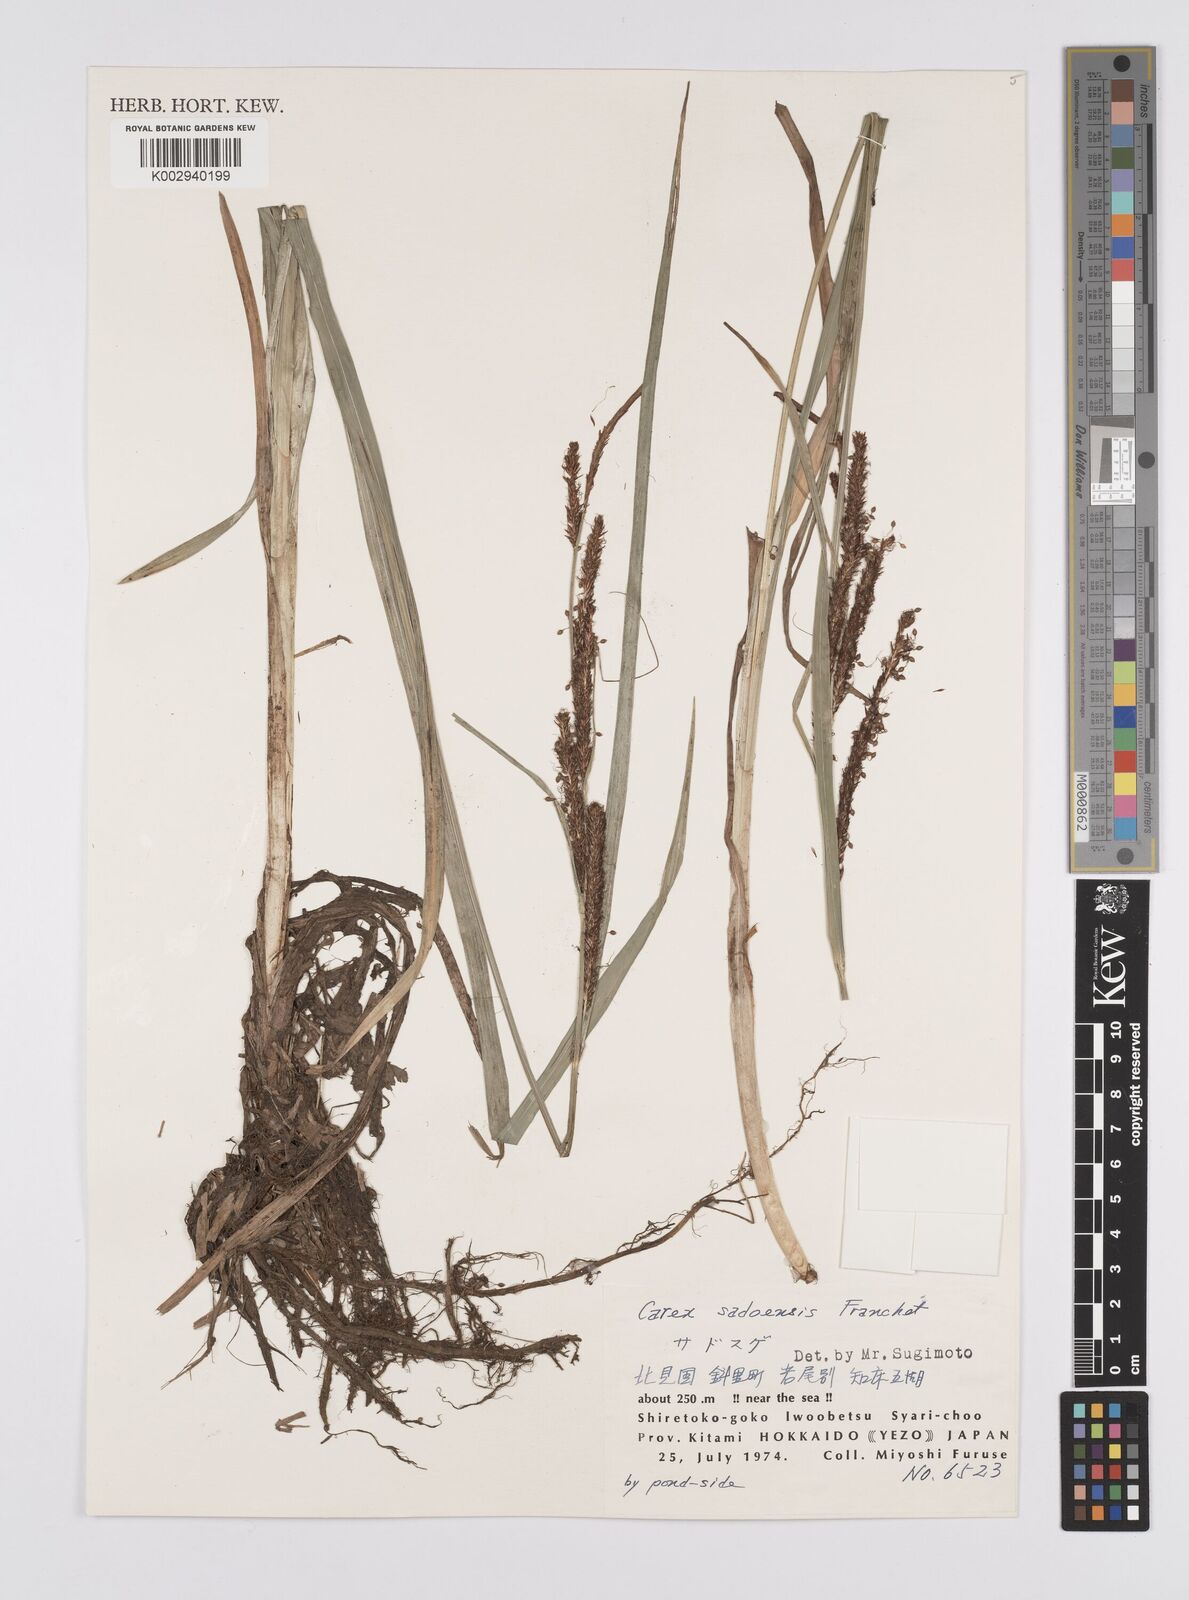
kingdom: Plantae
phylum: Tracheophyta
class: Liliopsida
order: Poales
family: Cyperaceae
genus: Carex
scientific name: Carex sadoensis
